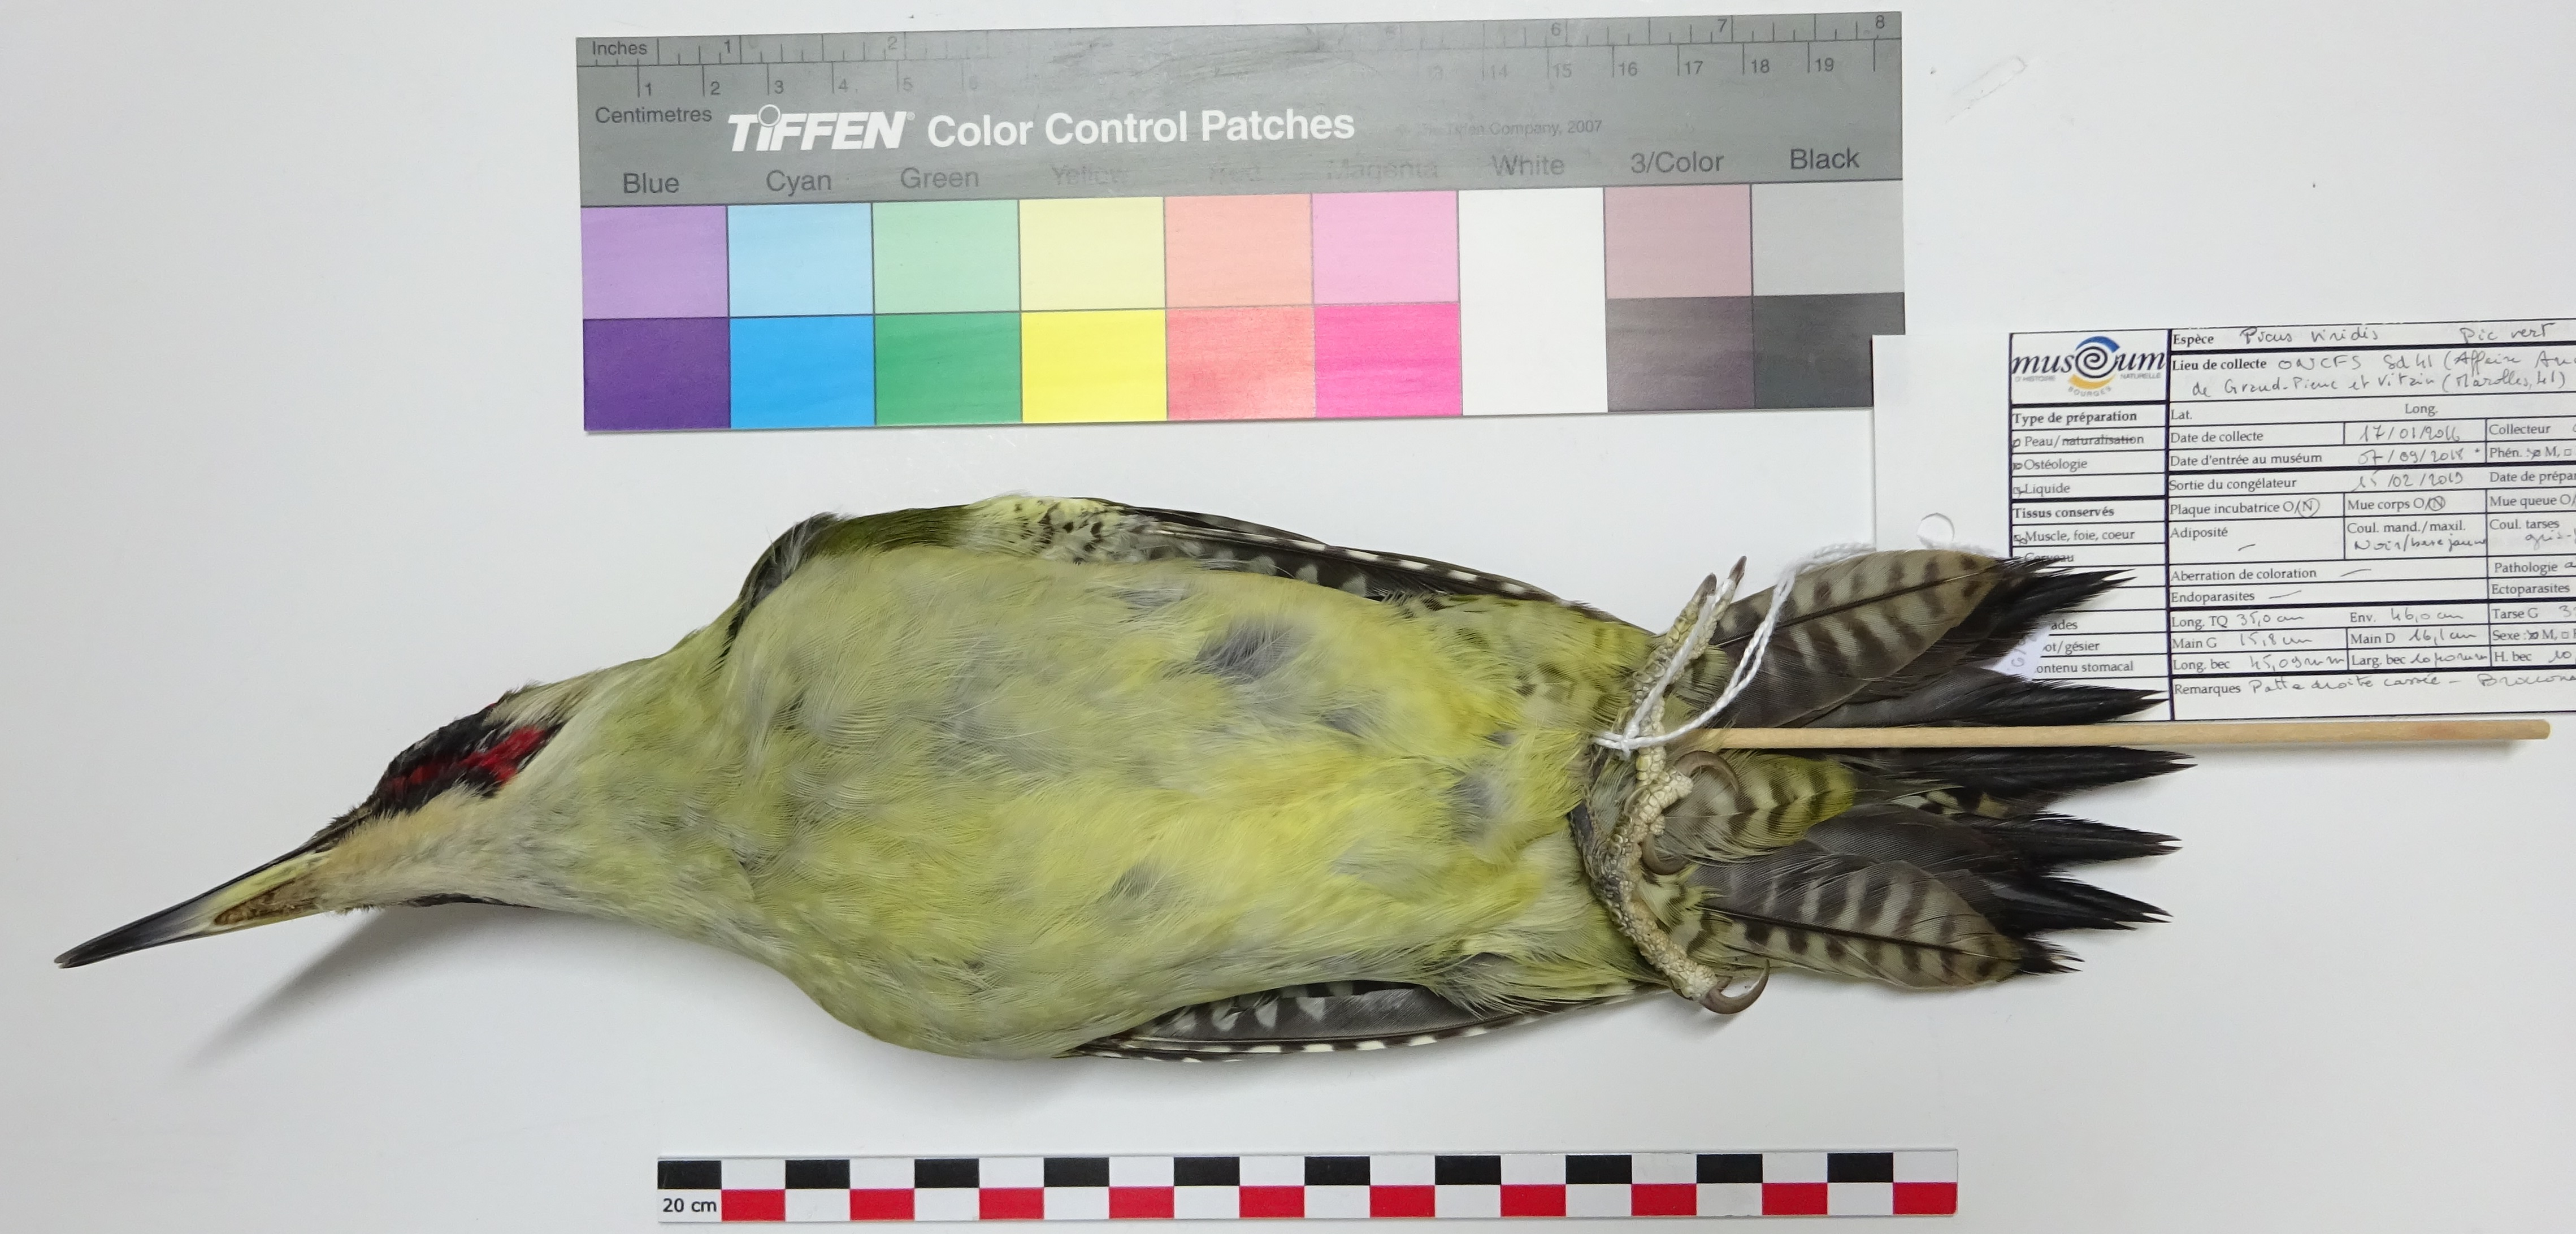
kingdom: Animalia
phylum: Chordata
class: Aves
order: Piciformes
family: Picidae
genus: Picus
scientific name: Picus viridis
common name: European green woodpecker
